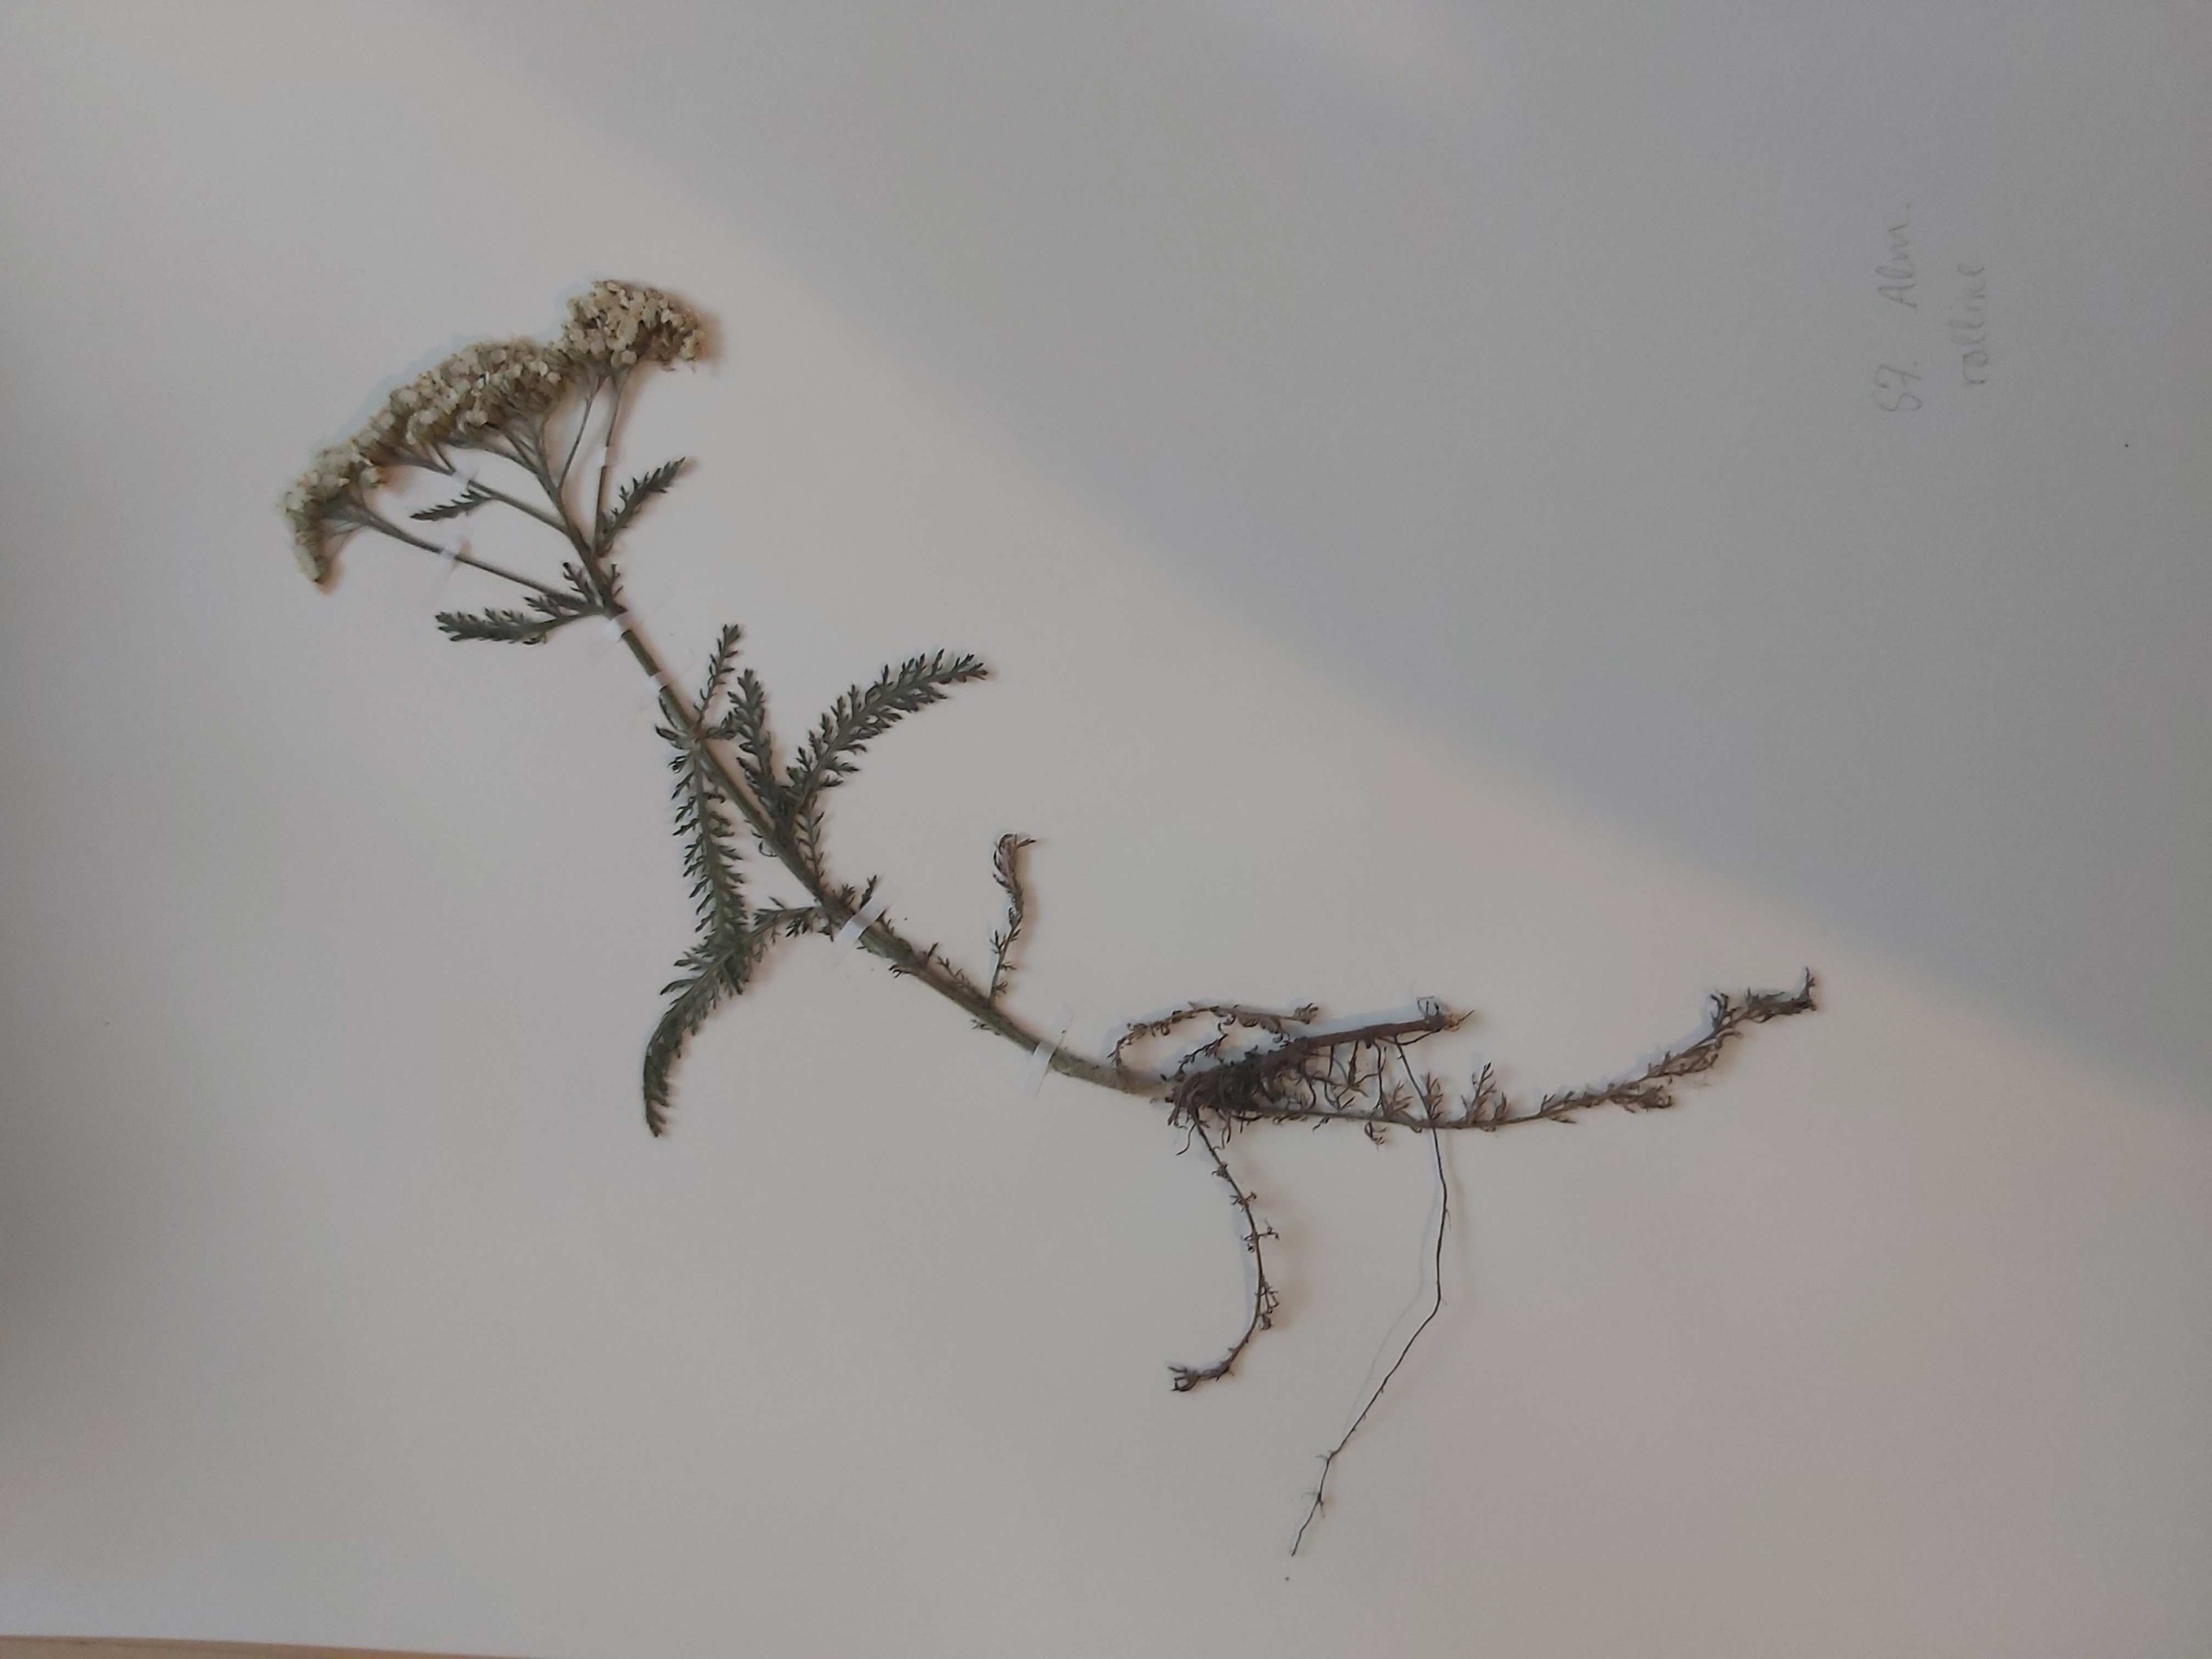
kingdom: Plantae
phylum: Tracheophyta
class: Magnoliopsida
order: Asterales
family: Asteraceae
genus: Achillea
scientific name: Achillea millefolium
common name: Almindelig røllike
